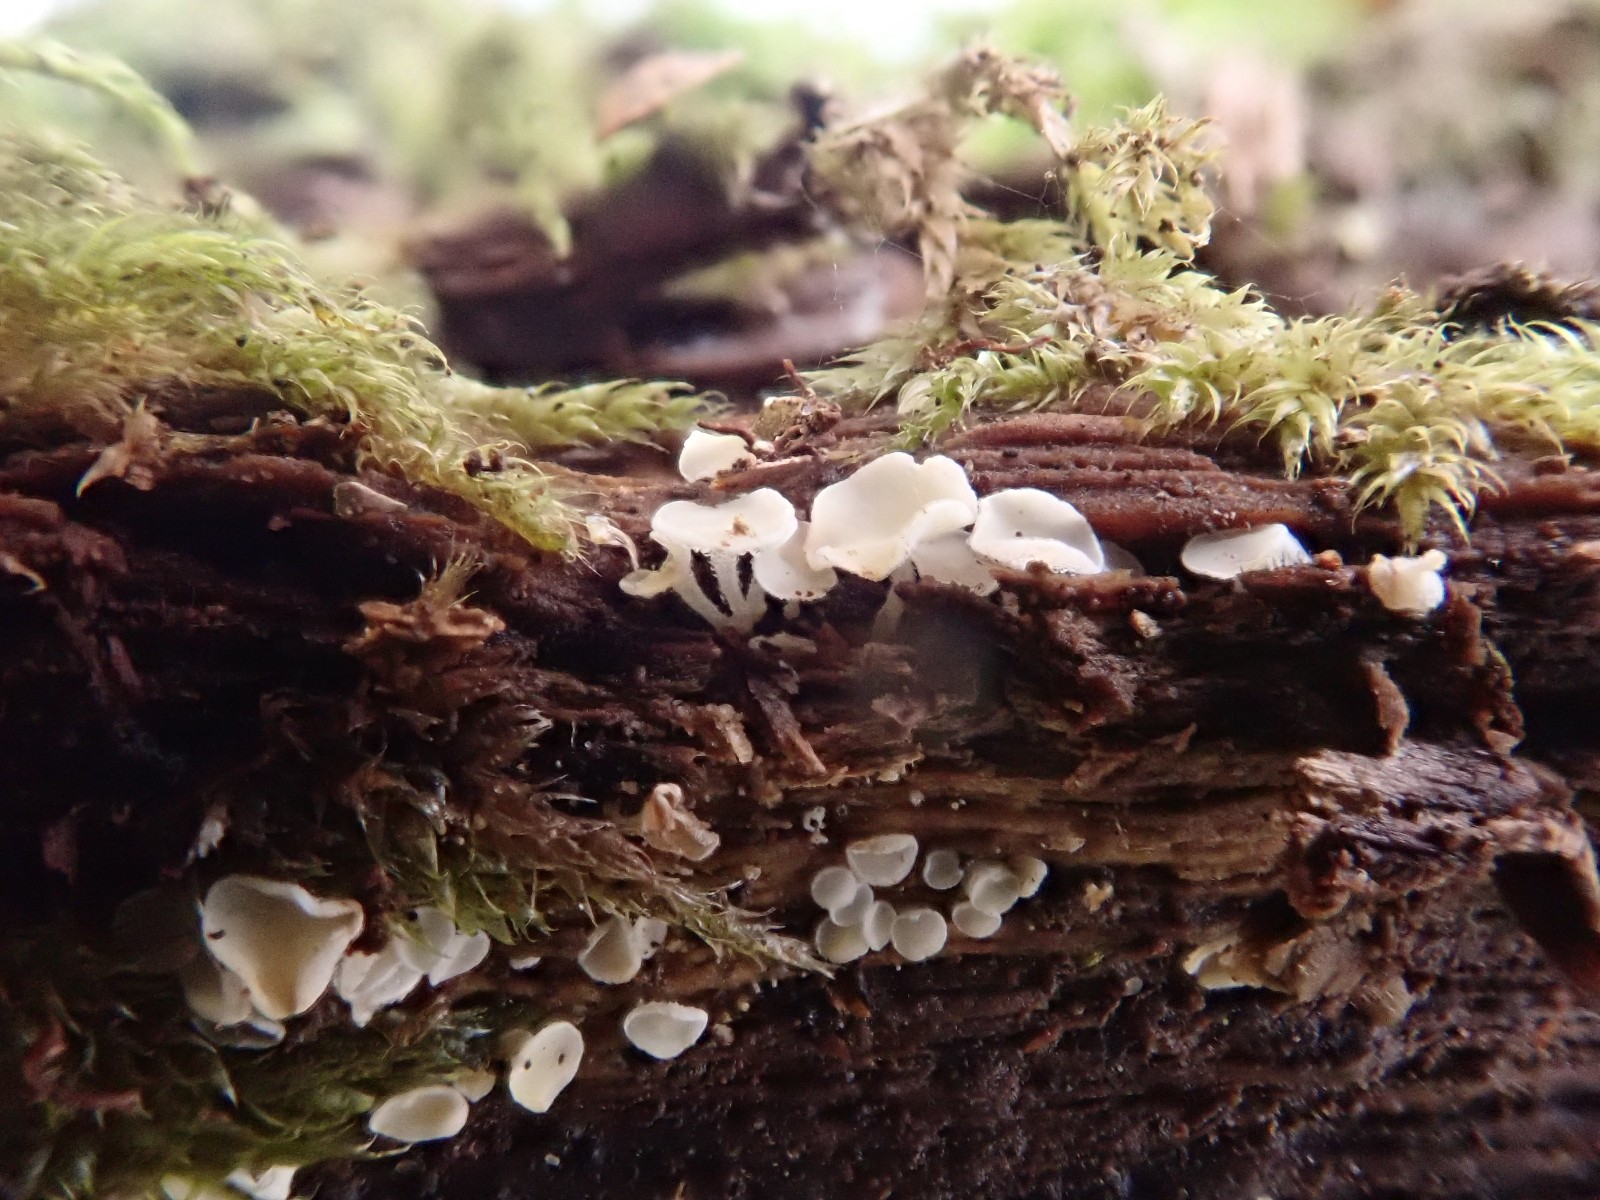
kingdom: Fungi
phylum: Ascomycota
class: Leotiomycetes
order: Helotiales
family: Lachnaceae
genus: Lachnum
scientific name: Lachnum
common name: frynseskive
